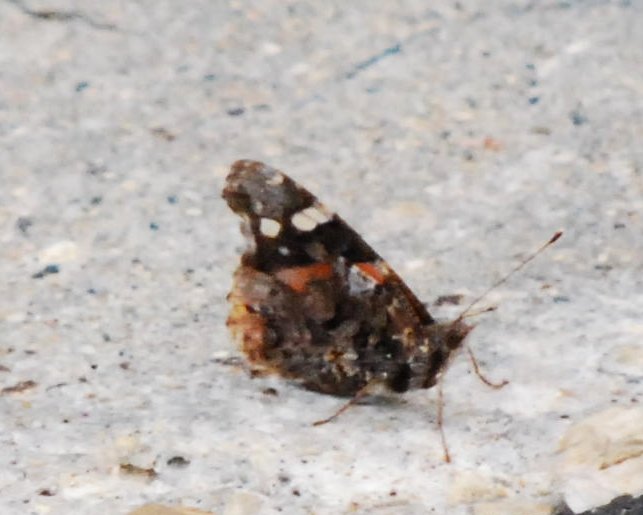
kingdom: Animalia
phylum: Arthropoda
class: Insecta
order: Lepidoptera
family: Nymphalidae
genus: Vanessa
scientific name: Vanessa atalanta
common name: Red Admiral
